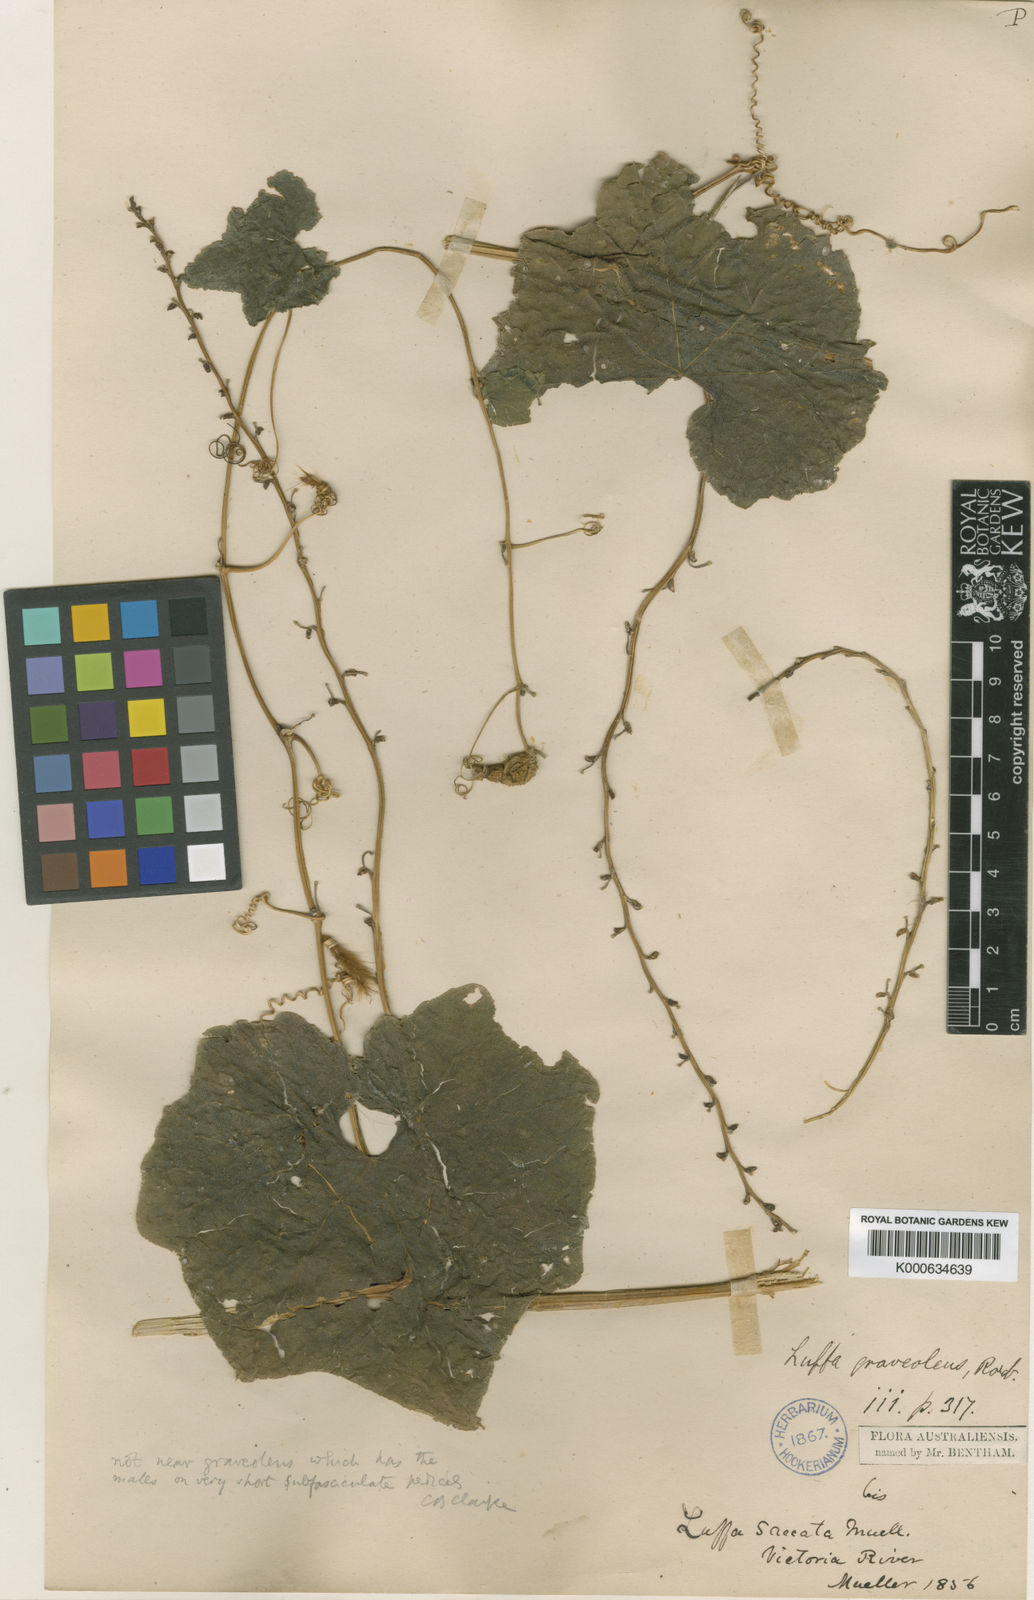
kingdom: Plantae
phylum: Tracheophyta
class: Magnoliopsida
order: Cucurbitales
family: Cucurbitaceae
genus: Luffa
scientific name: Luffa graveolens
